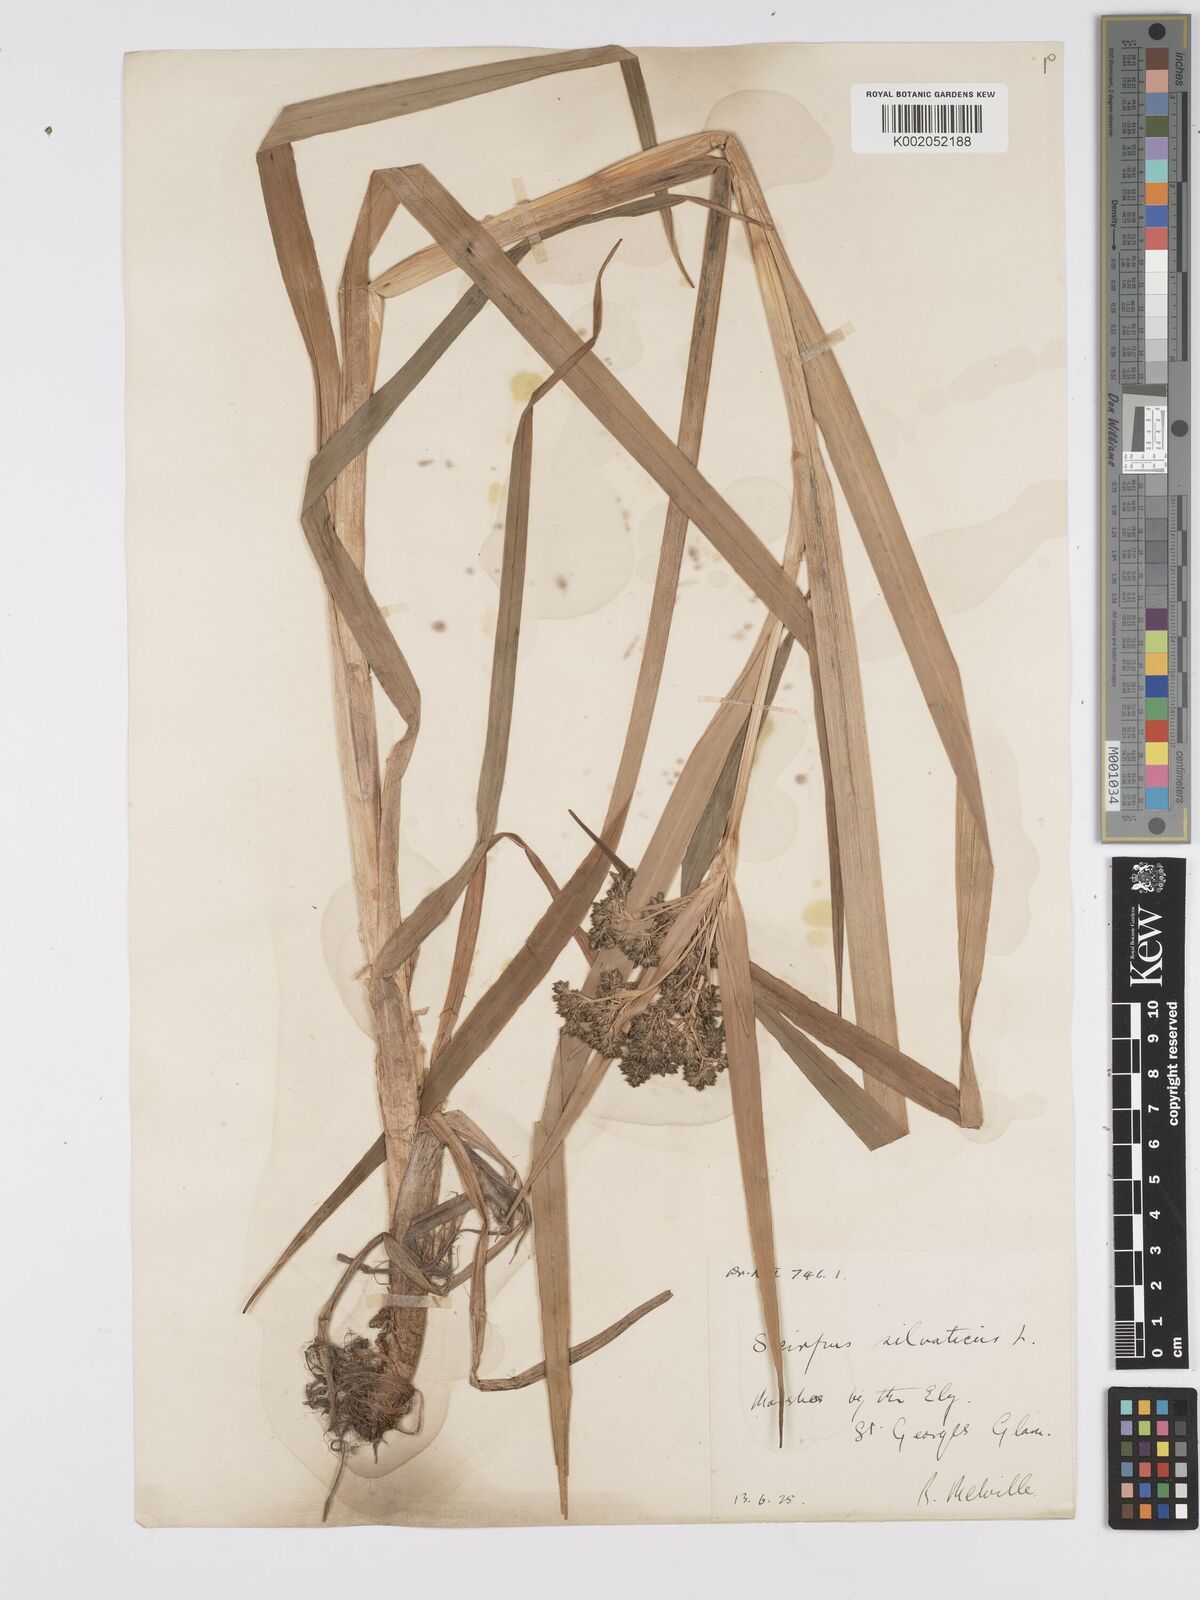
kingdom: Plantae
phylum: Tracheophyta
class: Liliopsida
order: Poales
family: Cyperaceae
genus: Scirpus
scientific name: Scirpus radicans
